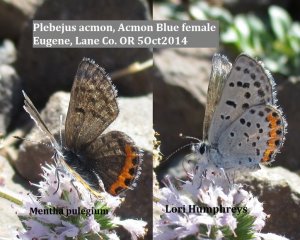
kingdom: Animalia
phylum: Arthropoda
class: Insecta
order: Lepidoptera
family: Lycaenidae
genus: Plebejus
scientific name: Plebejus acmon
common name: Acmon Blue
